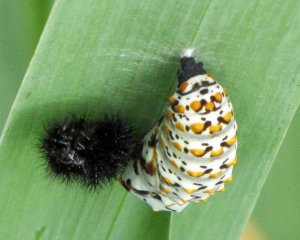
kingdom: Animalia
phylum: Arthropoda
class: Insecta
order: Lepidoptera
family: Nymphalidae
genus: Euphydryas
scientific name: Euphydryas phaeton
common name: Baltimore Checkerspot
